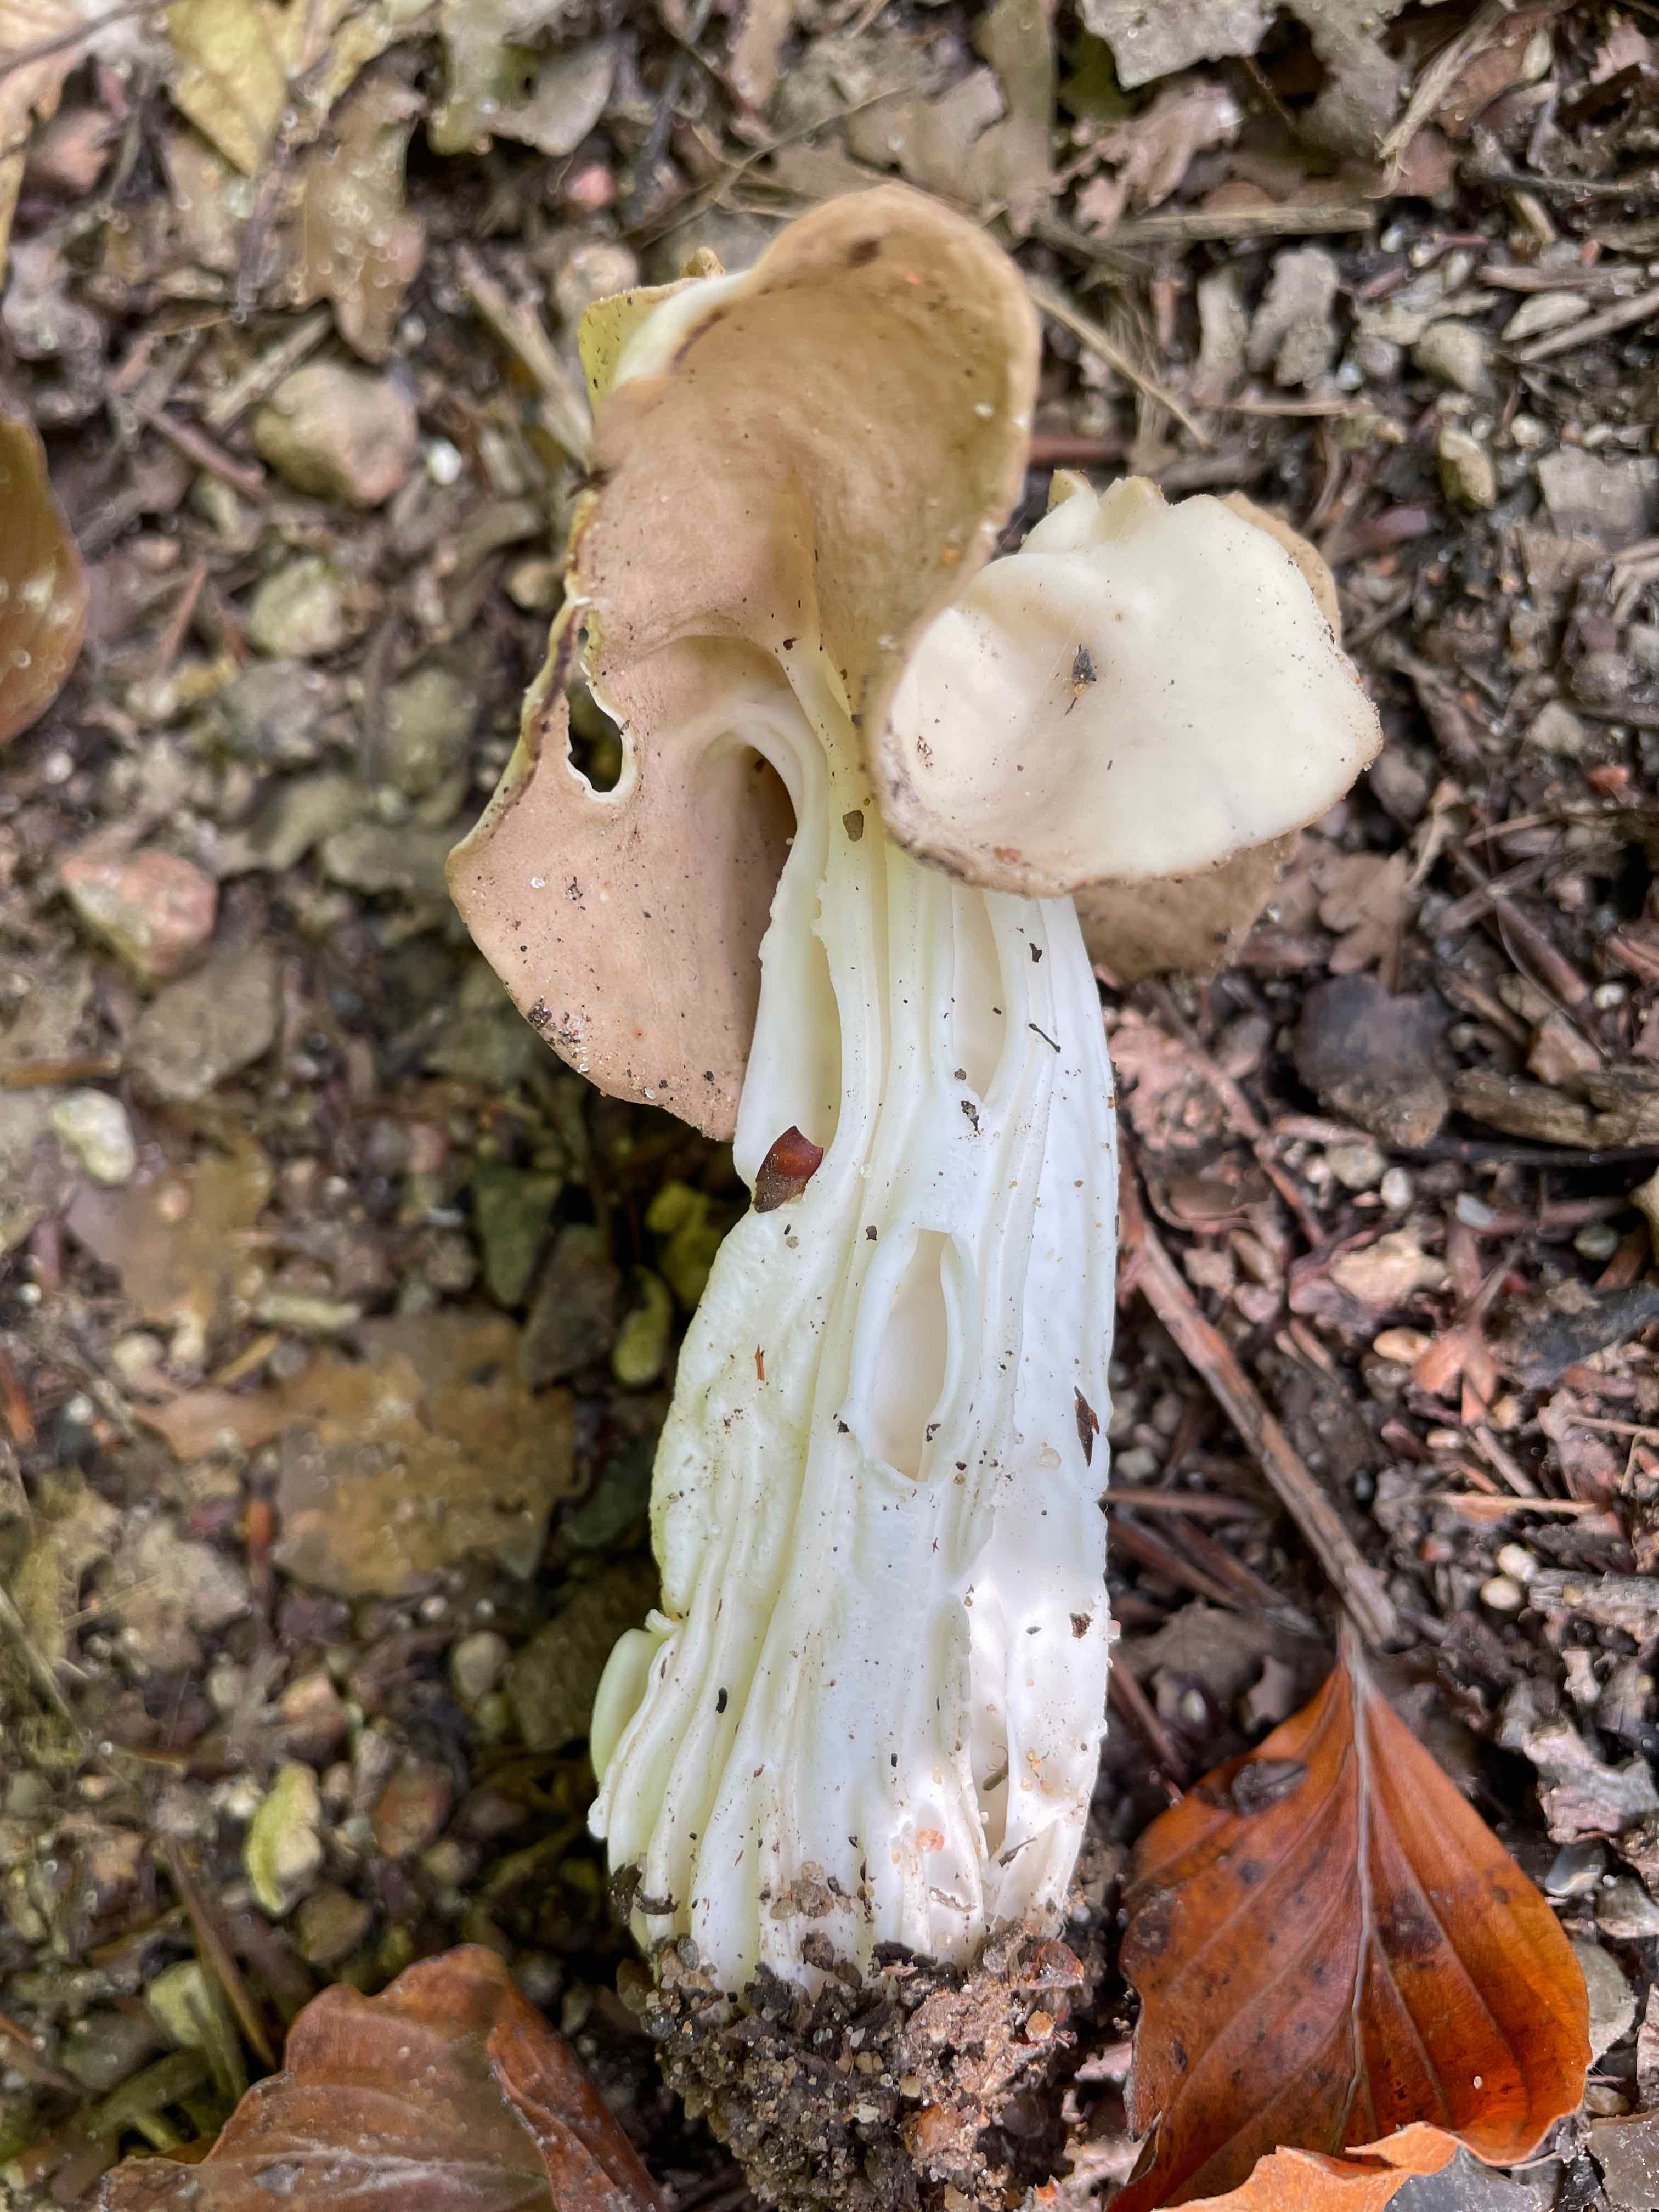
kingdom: Fungi
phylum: Ascomycota
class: Pezizomycetes
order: Pezizales
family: Helvellaceae
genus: Helvella
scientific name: Helvella crispa
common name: kruset foldhat
